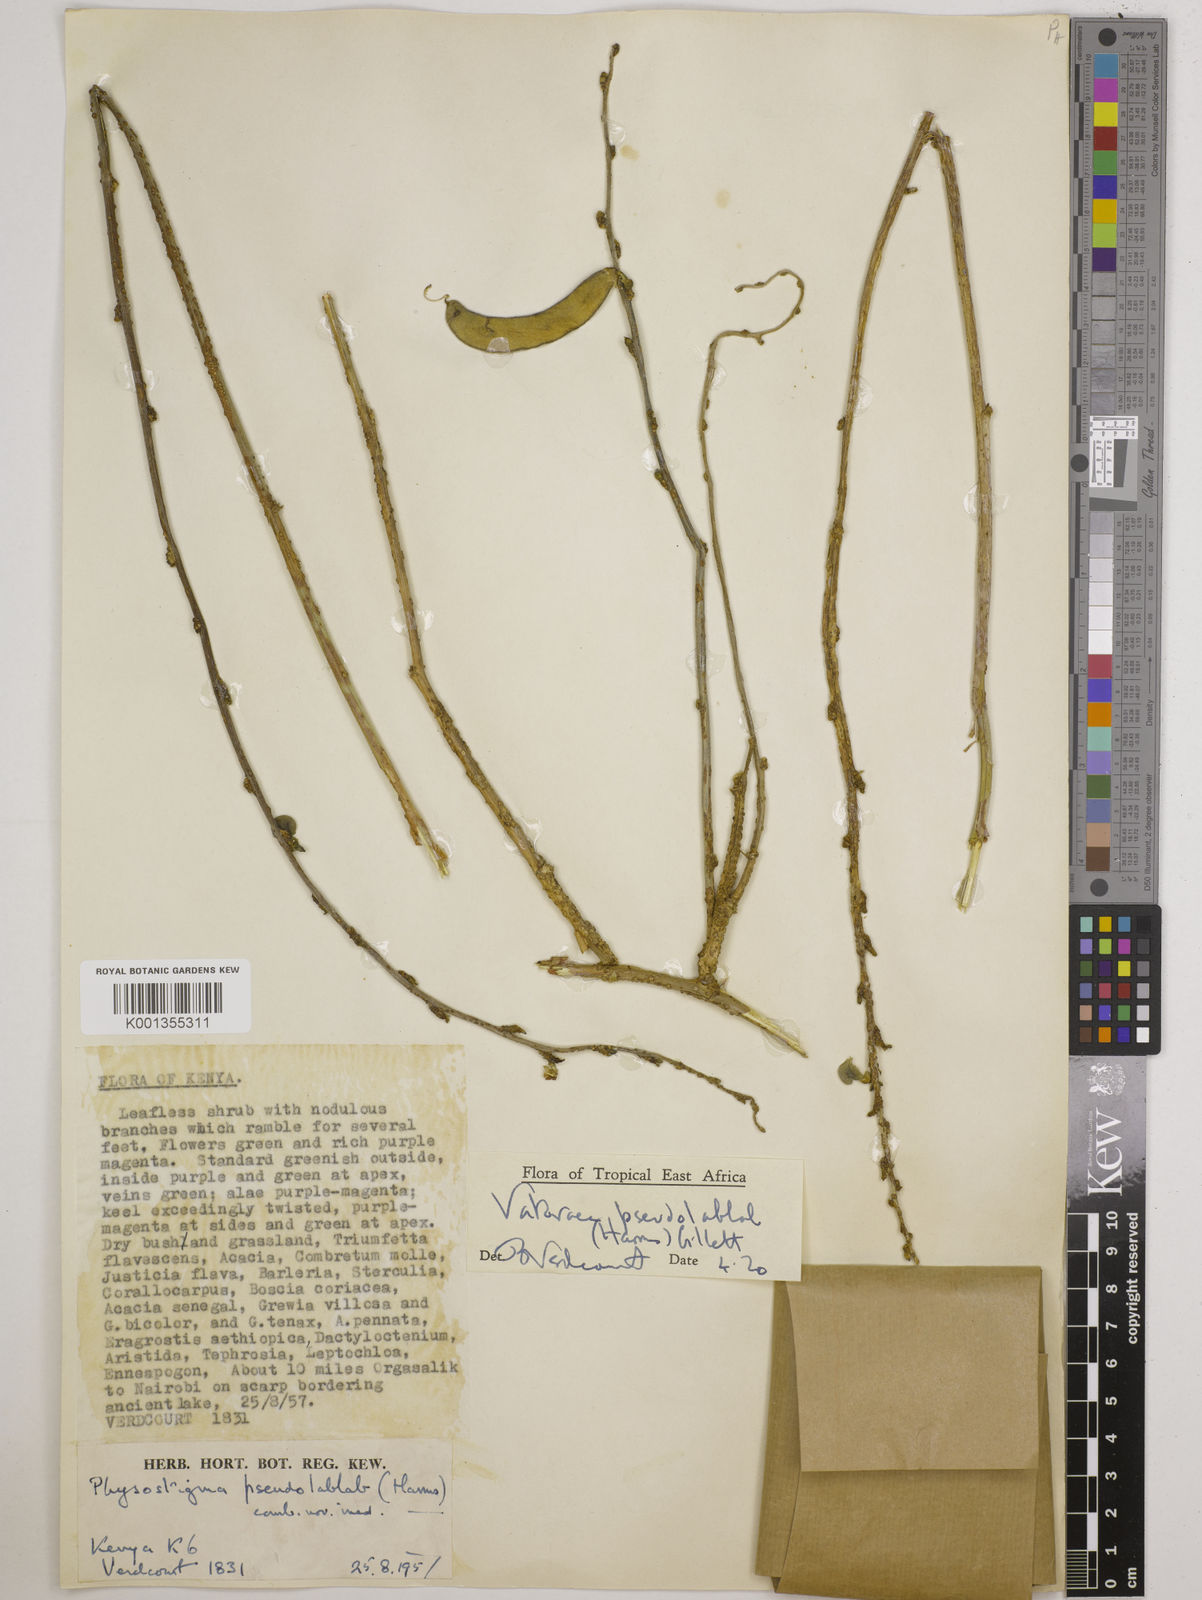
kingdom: Plantae
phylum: Tracheophyta
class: Magnoliopsida
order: Fabales
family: Fabaceae
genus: Vatovaea
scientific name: Vatovaea pseudolablab
